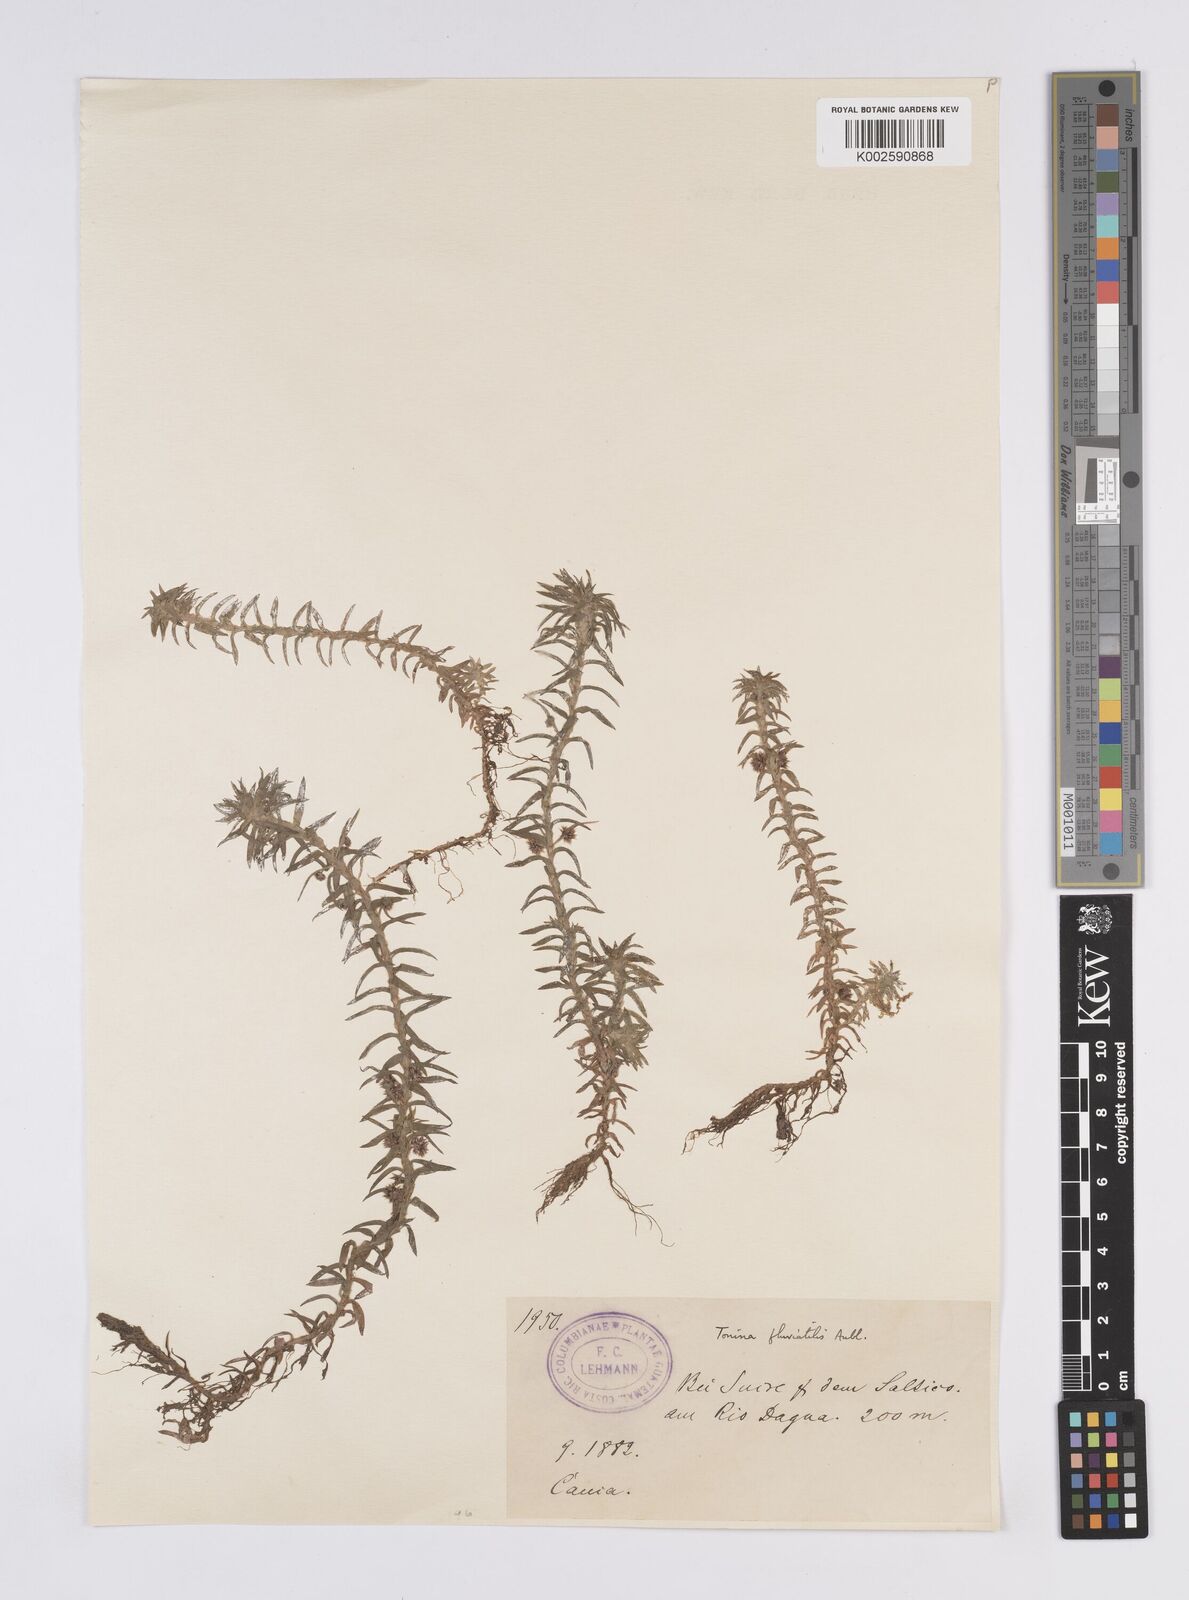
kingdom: Plantae
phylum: Tracheophyta
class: Liliopsida
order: Poales
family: Eriocaulaceae
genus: Paepalanthus
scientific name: Paepalanthus fluviatilis
